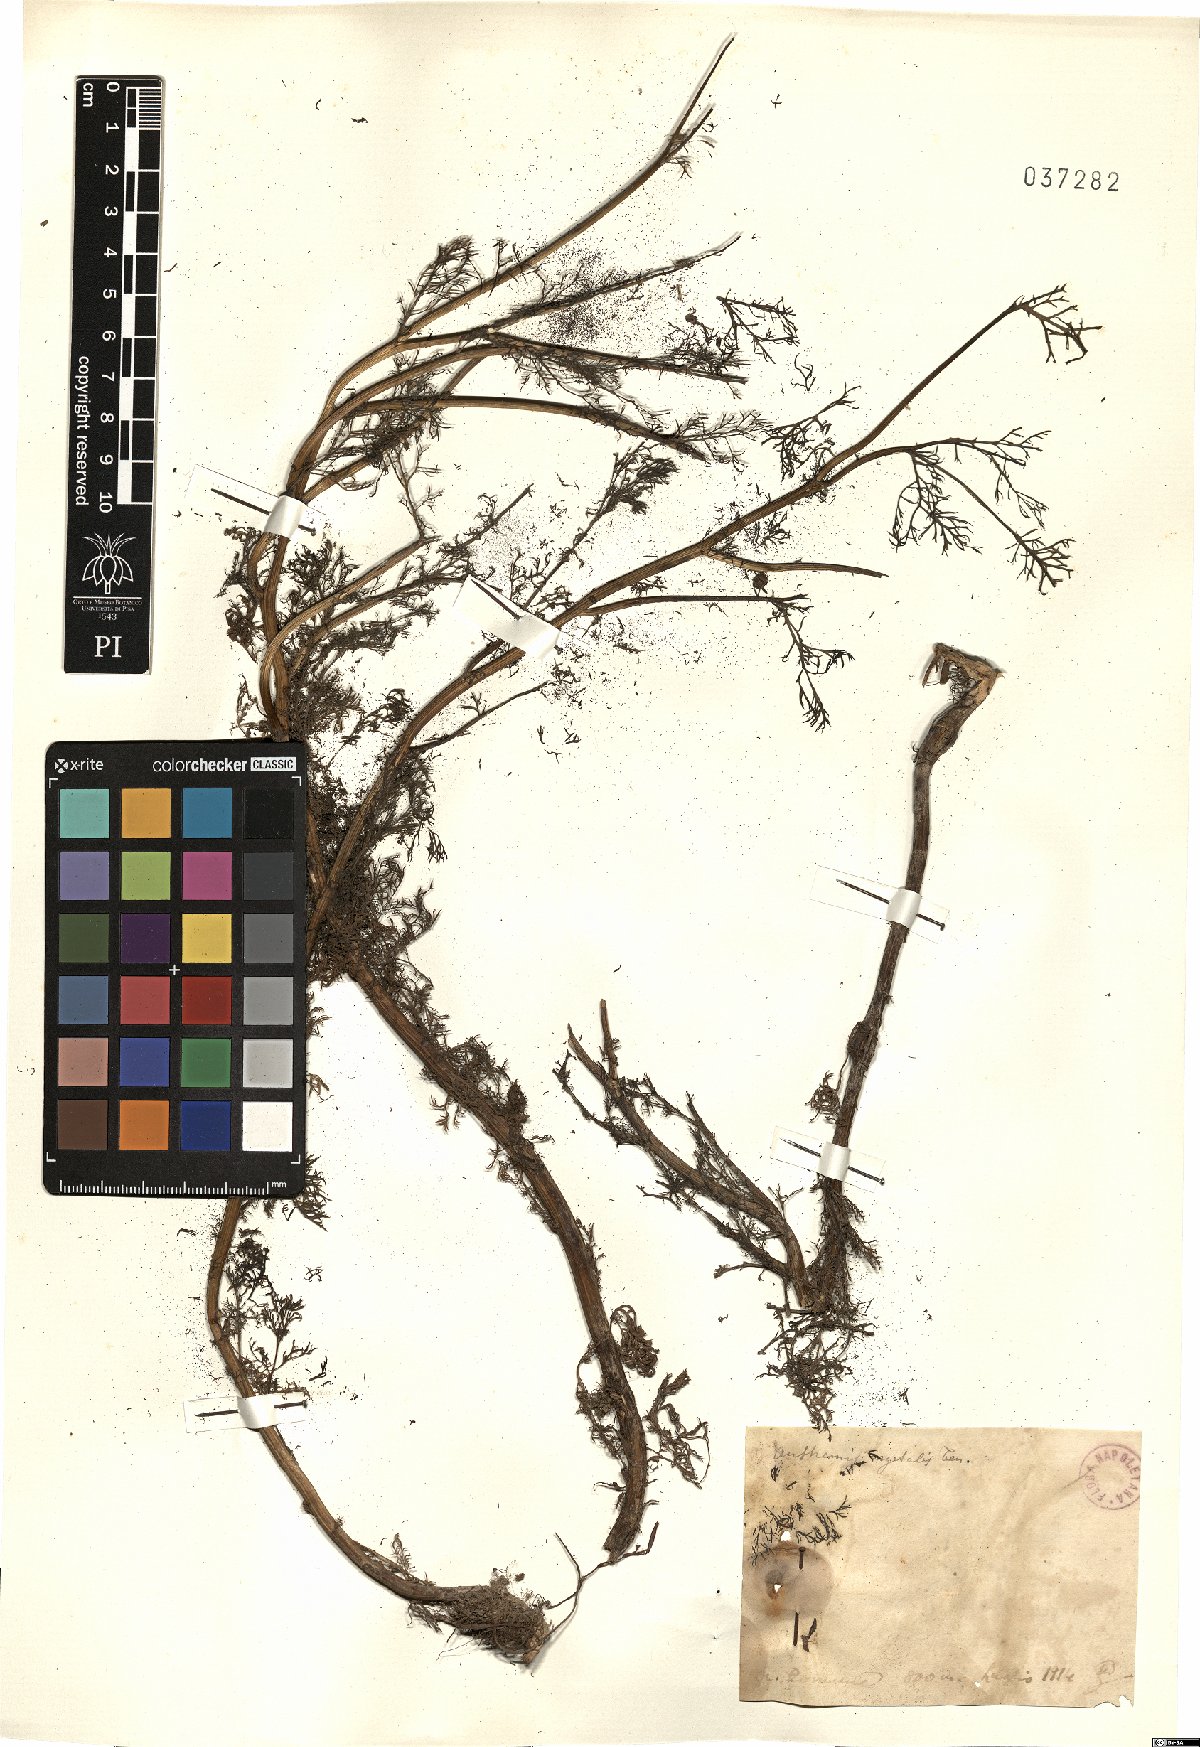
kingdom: Plantae
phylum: Tracheophyta
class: Magnoliopsida
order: Asterales
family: Asteraceae
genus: Cota
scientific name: Cota segetalis
